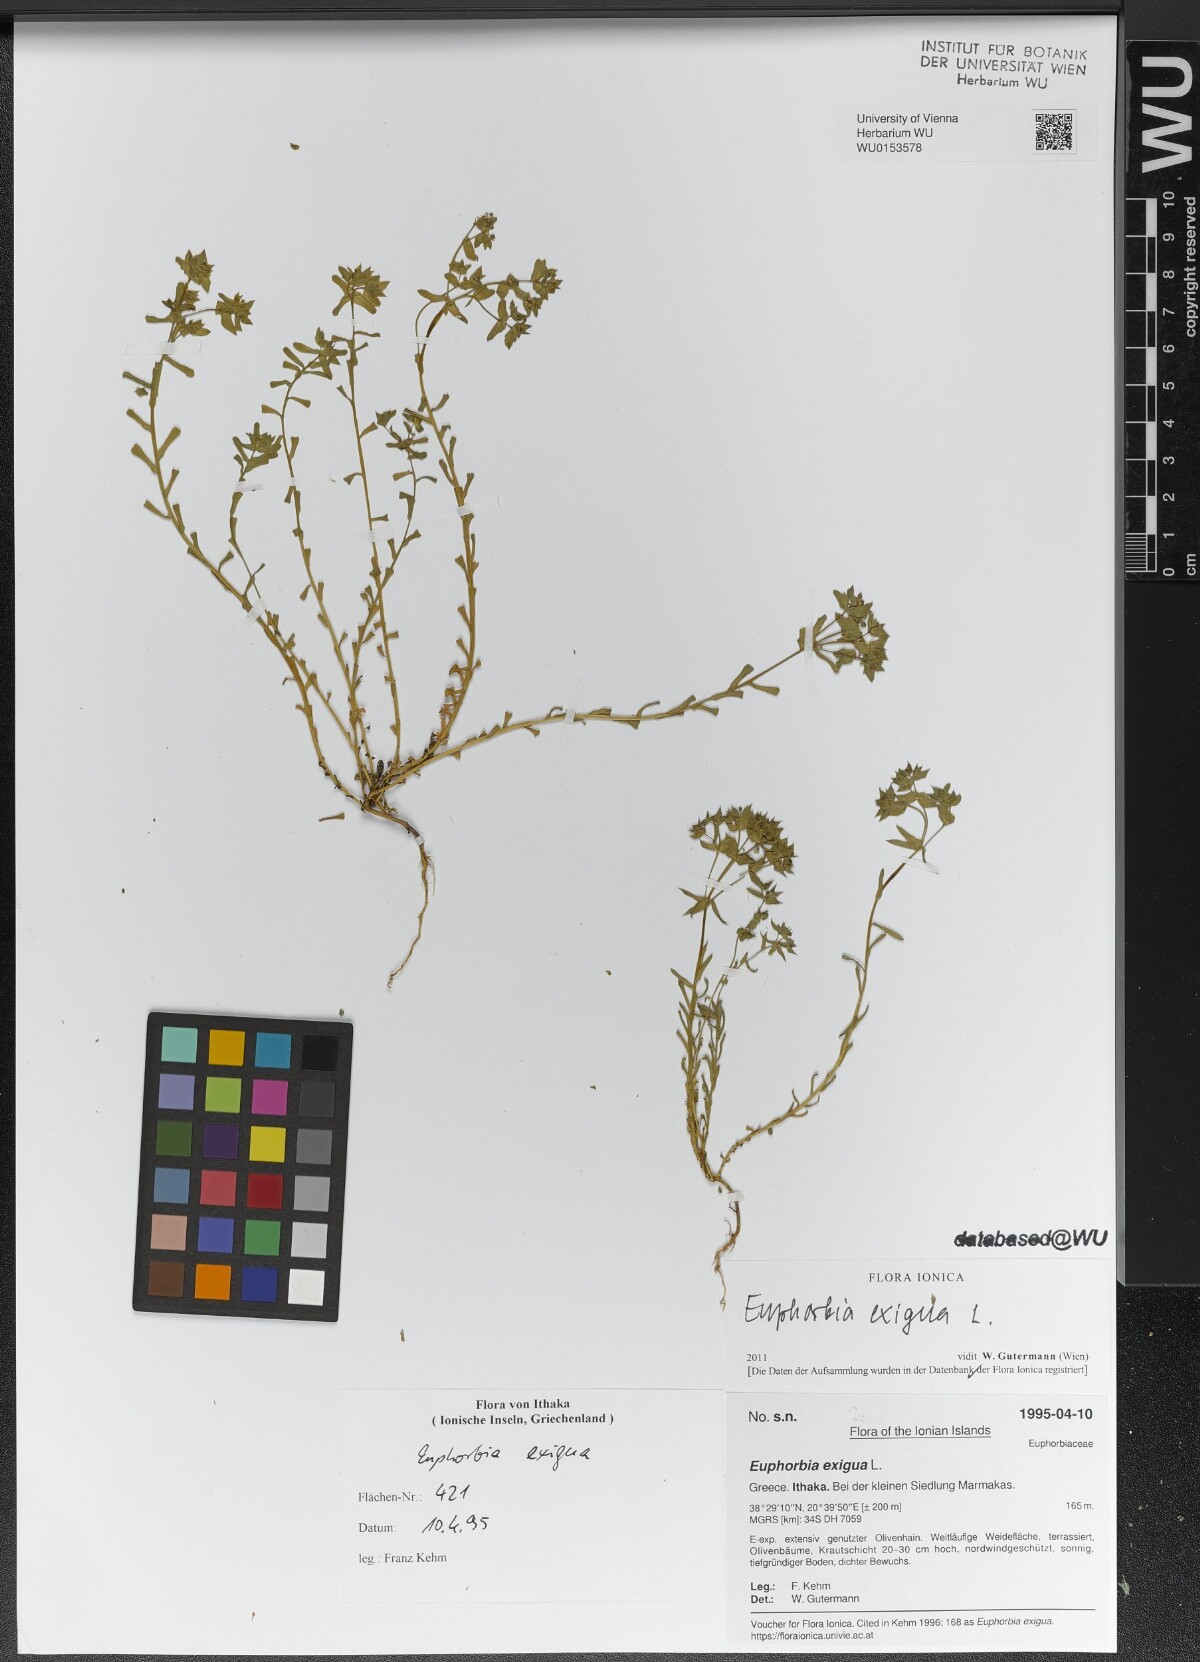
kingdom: Plantae
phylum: Tracheophyta
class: Magnoliopsida
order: Malpighiales
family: Euphorbiaceae
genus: Euphorbia
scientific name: Euphorbia exigua
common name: Dwarf spurge
